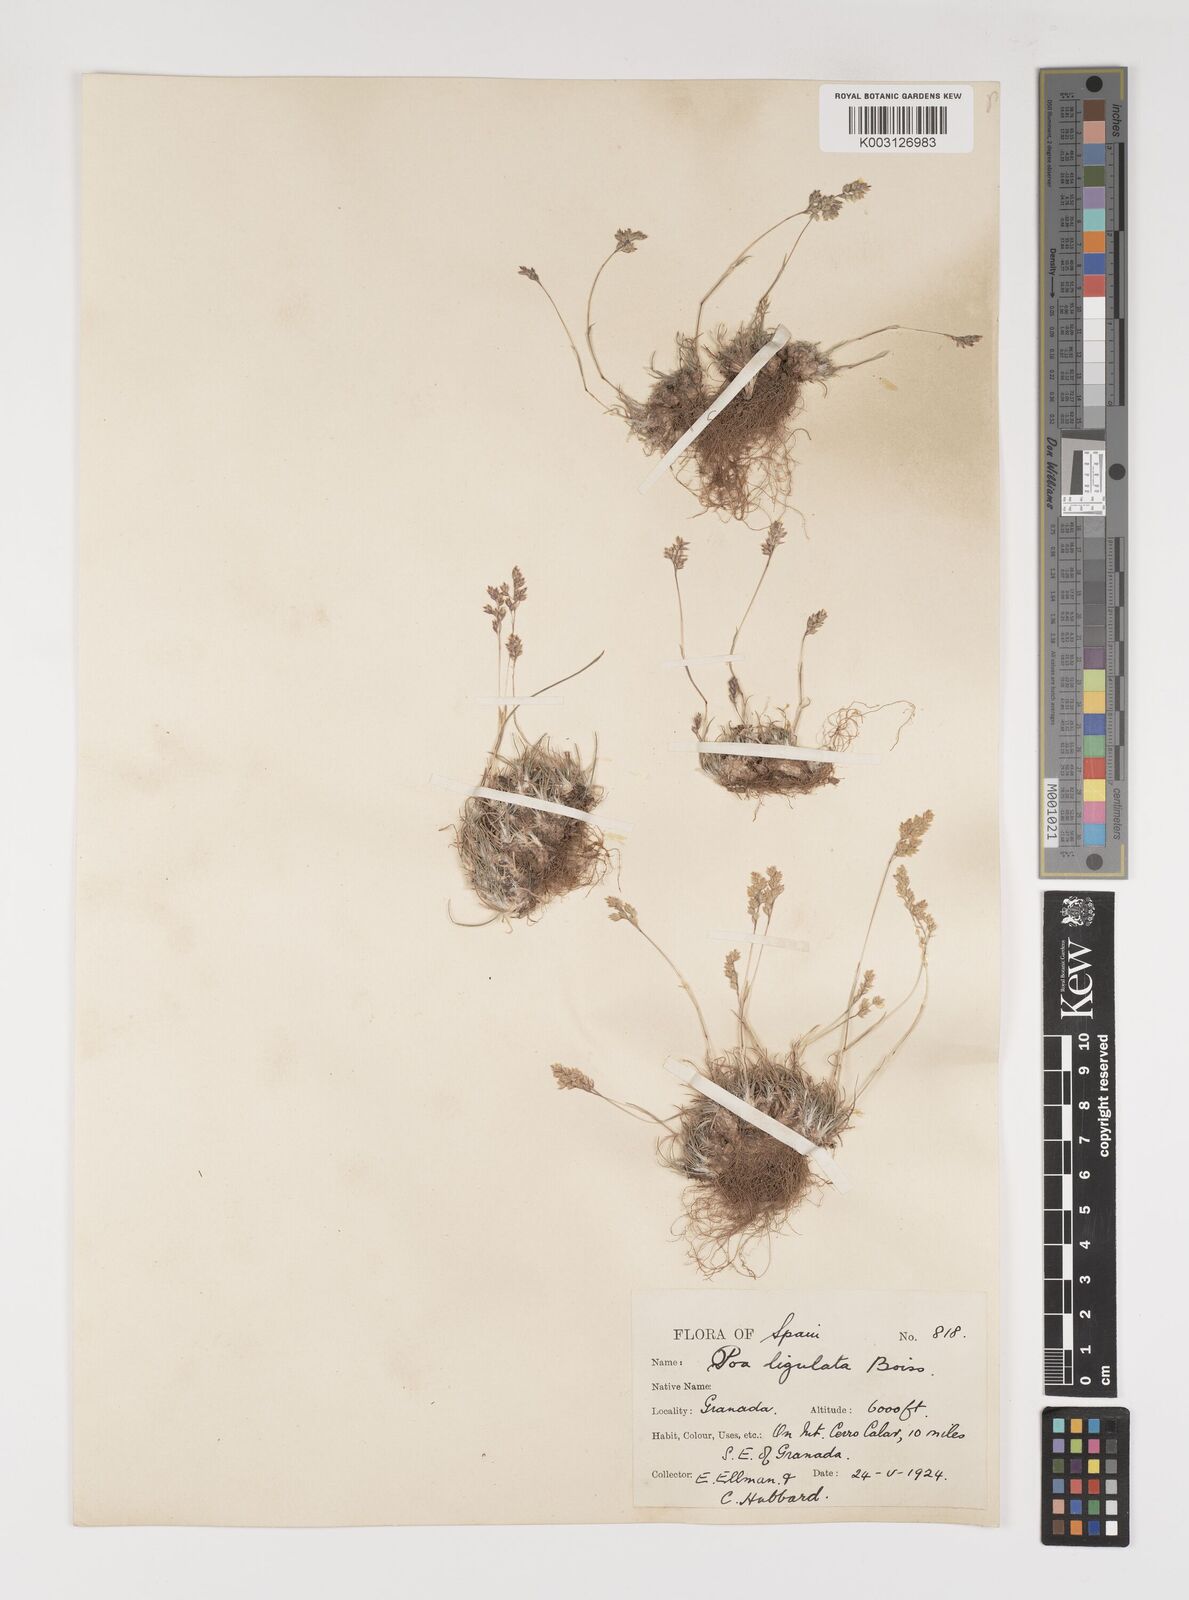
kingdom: Plantae
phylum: Tracheophyta
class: Liliopsida
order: Poales
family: Poaceae
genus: Poa
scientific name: Poa ligulata
